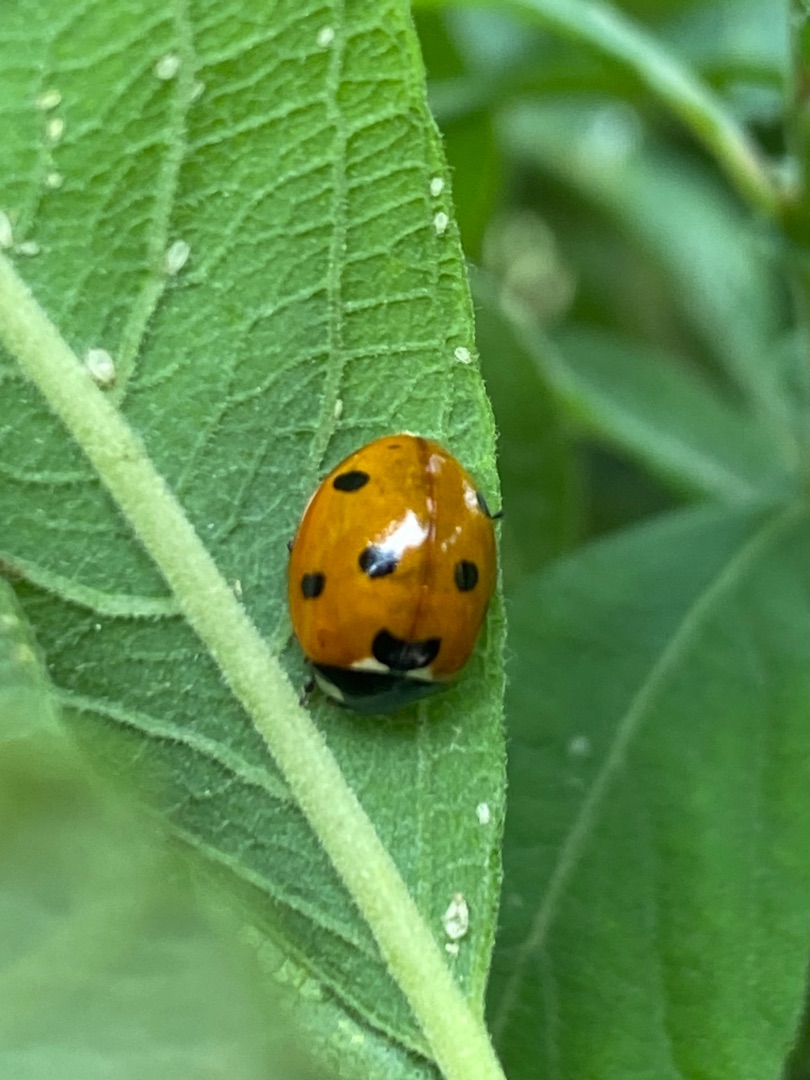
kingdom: Animalia
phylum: Arthropoda
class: Insecta
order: Coleoptera
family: Coccinellidae
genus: Coccinella
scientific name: Coccinella septempunctata
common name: Syvplettet mariehøne
